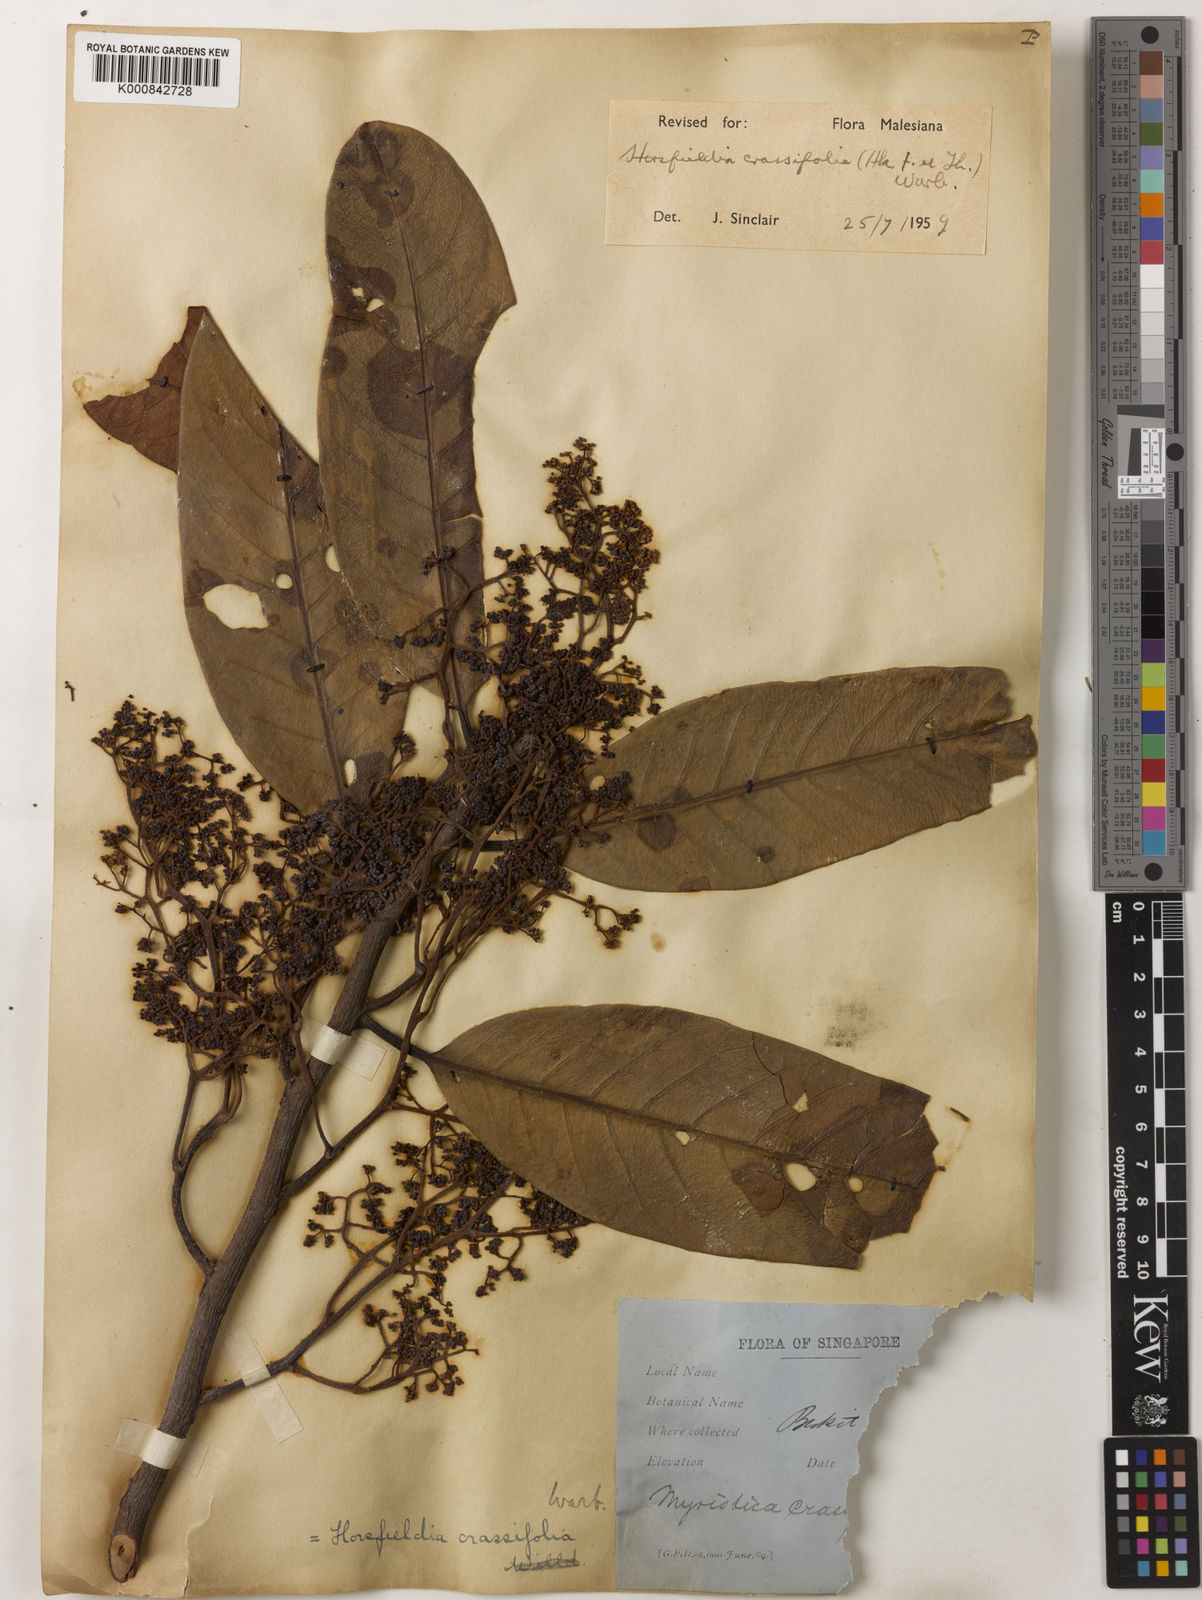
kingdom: Plantae
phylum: Tracheophyta
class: Magnoliopsida
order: Magnoliales
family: Myristicaceae
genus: Horsfieldia
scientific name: Horsfieldia crassifolia
